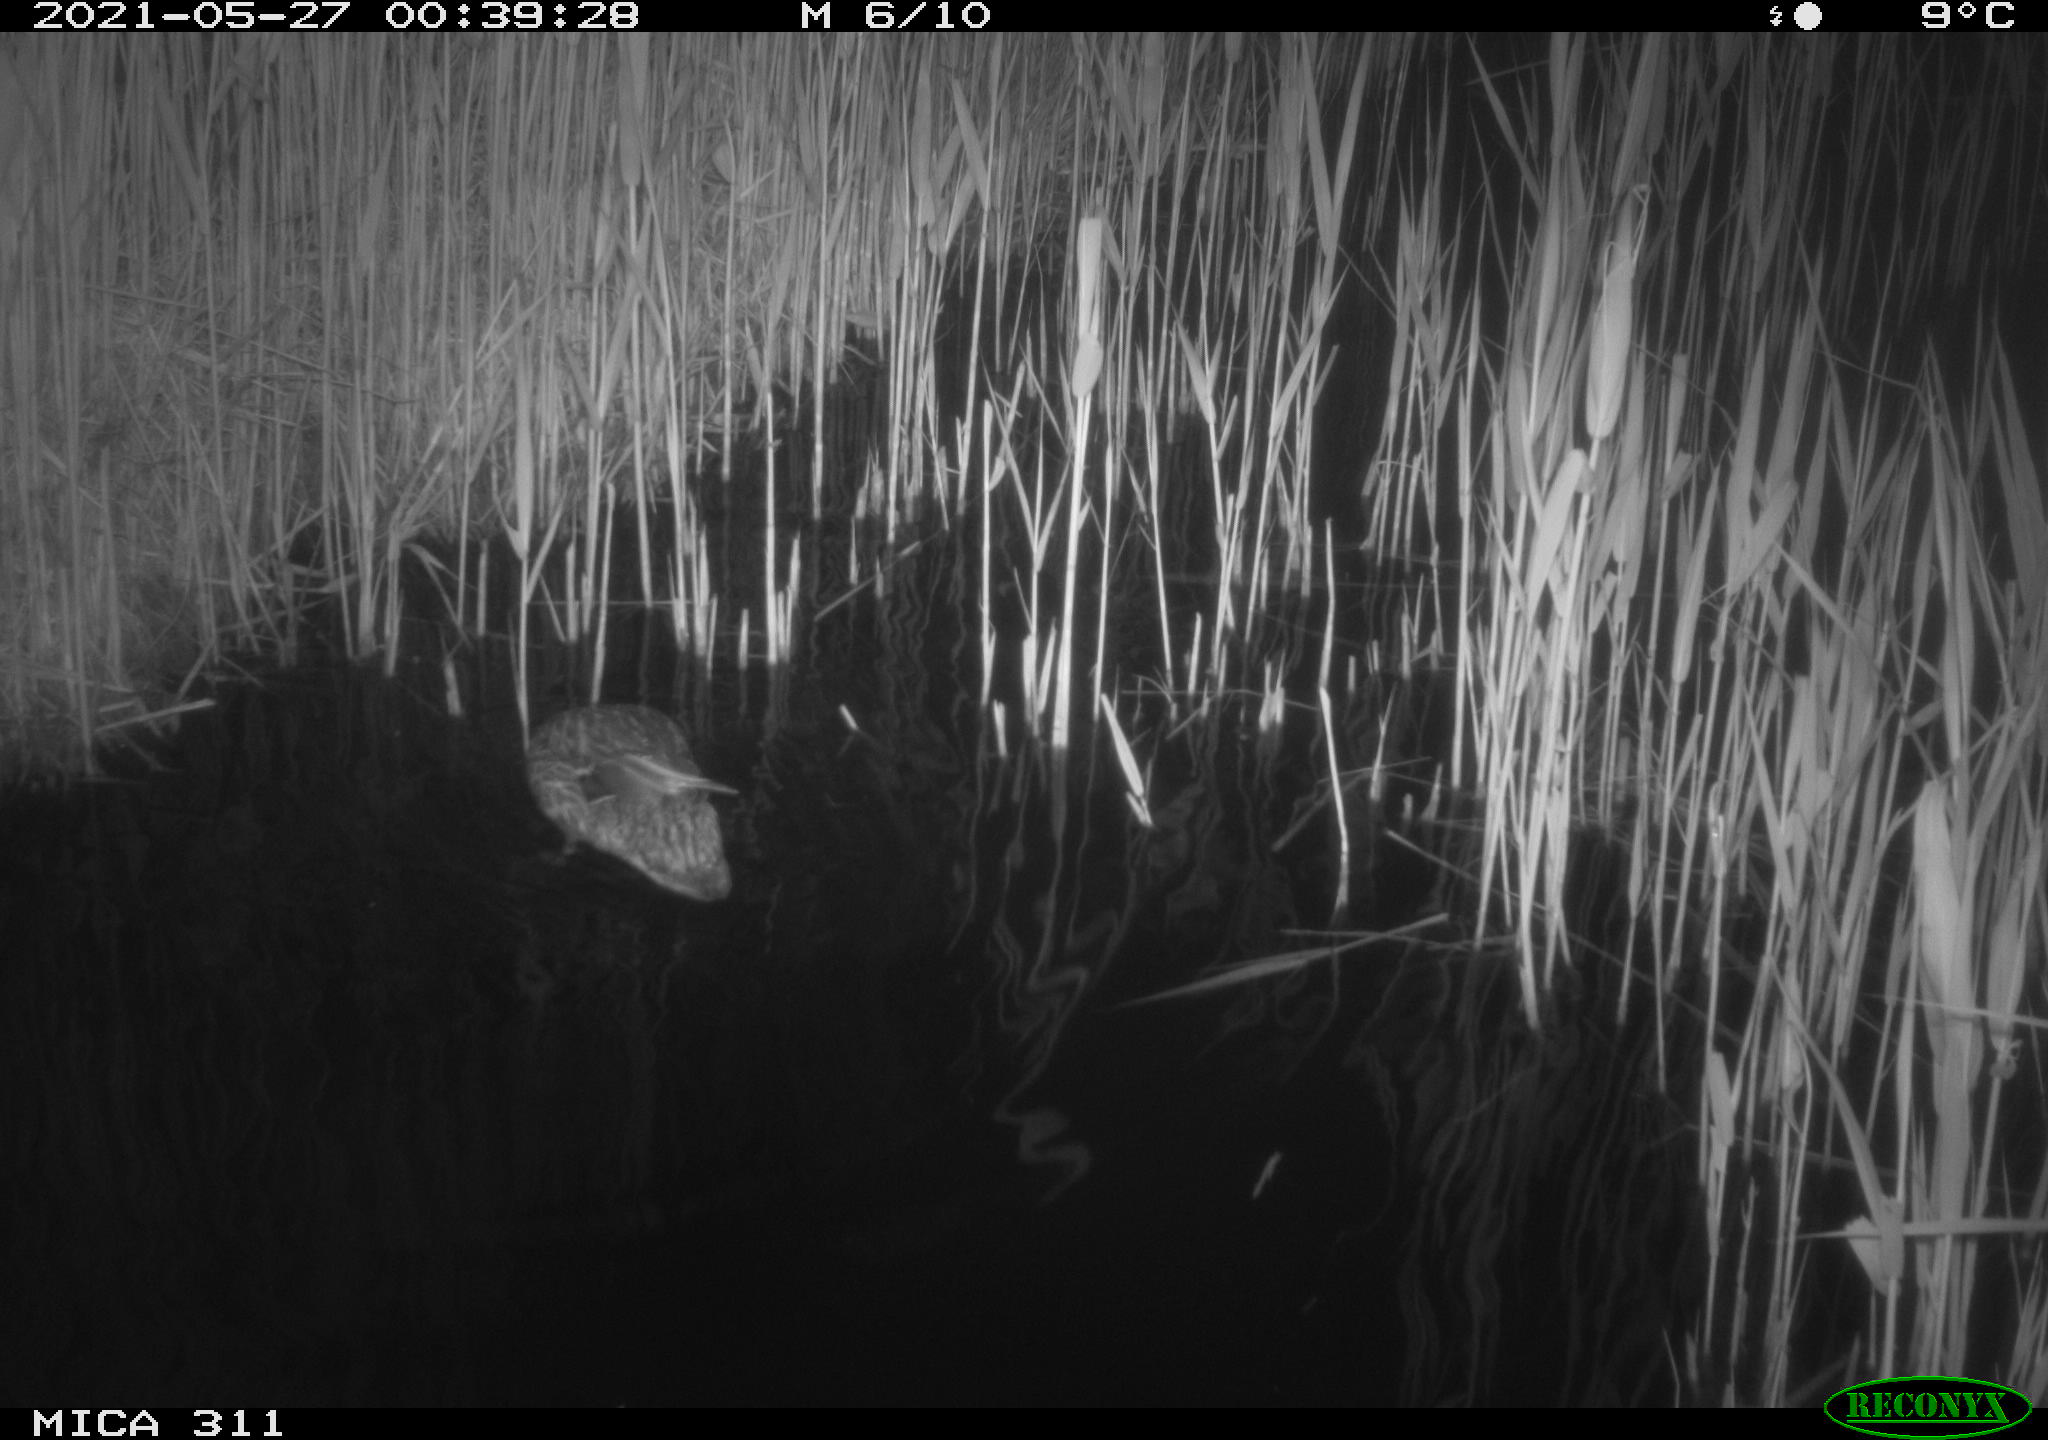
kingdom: Animalia
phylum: Chordata
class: Aves
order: Anseriformes
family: Anatidae
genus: Anas
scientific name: Anas platyrhynchos
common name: Mallard
